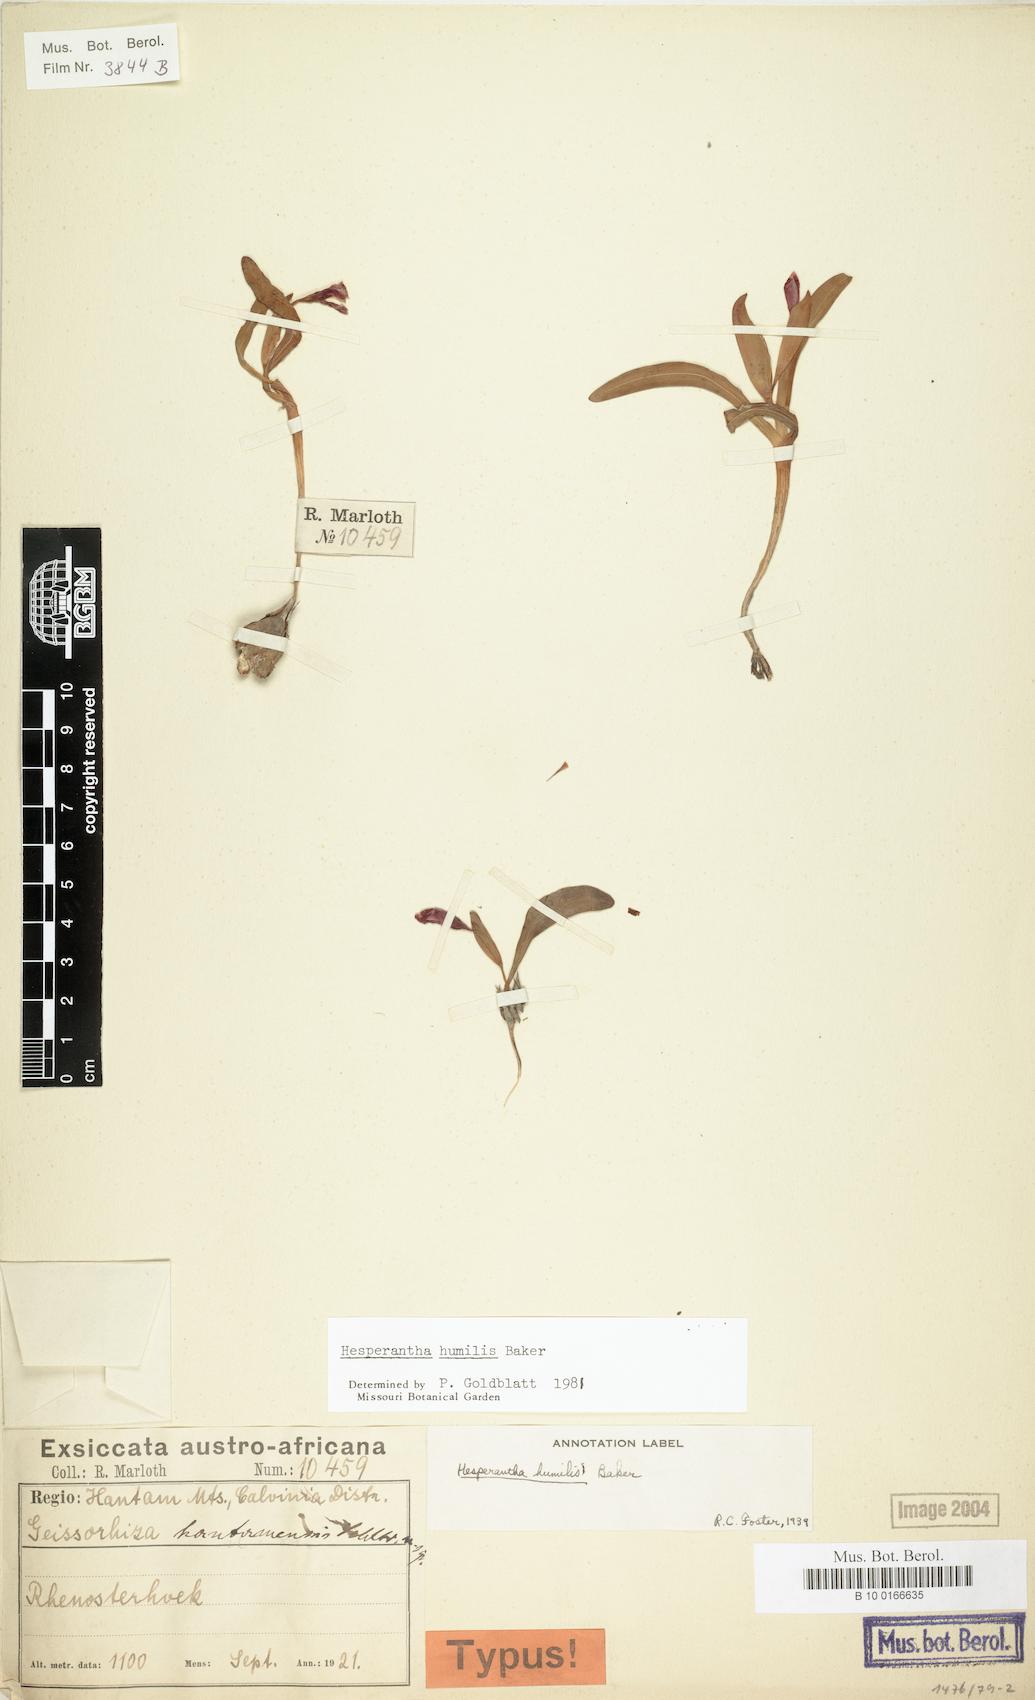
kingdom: Plantae
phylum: Tracheophyta
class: Liliopsida
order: Asparagales
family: Iridaceae
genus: Hesperantha
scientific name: Hesperantha humilis
